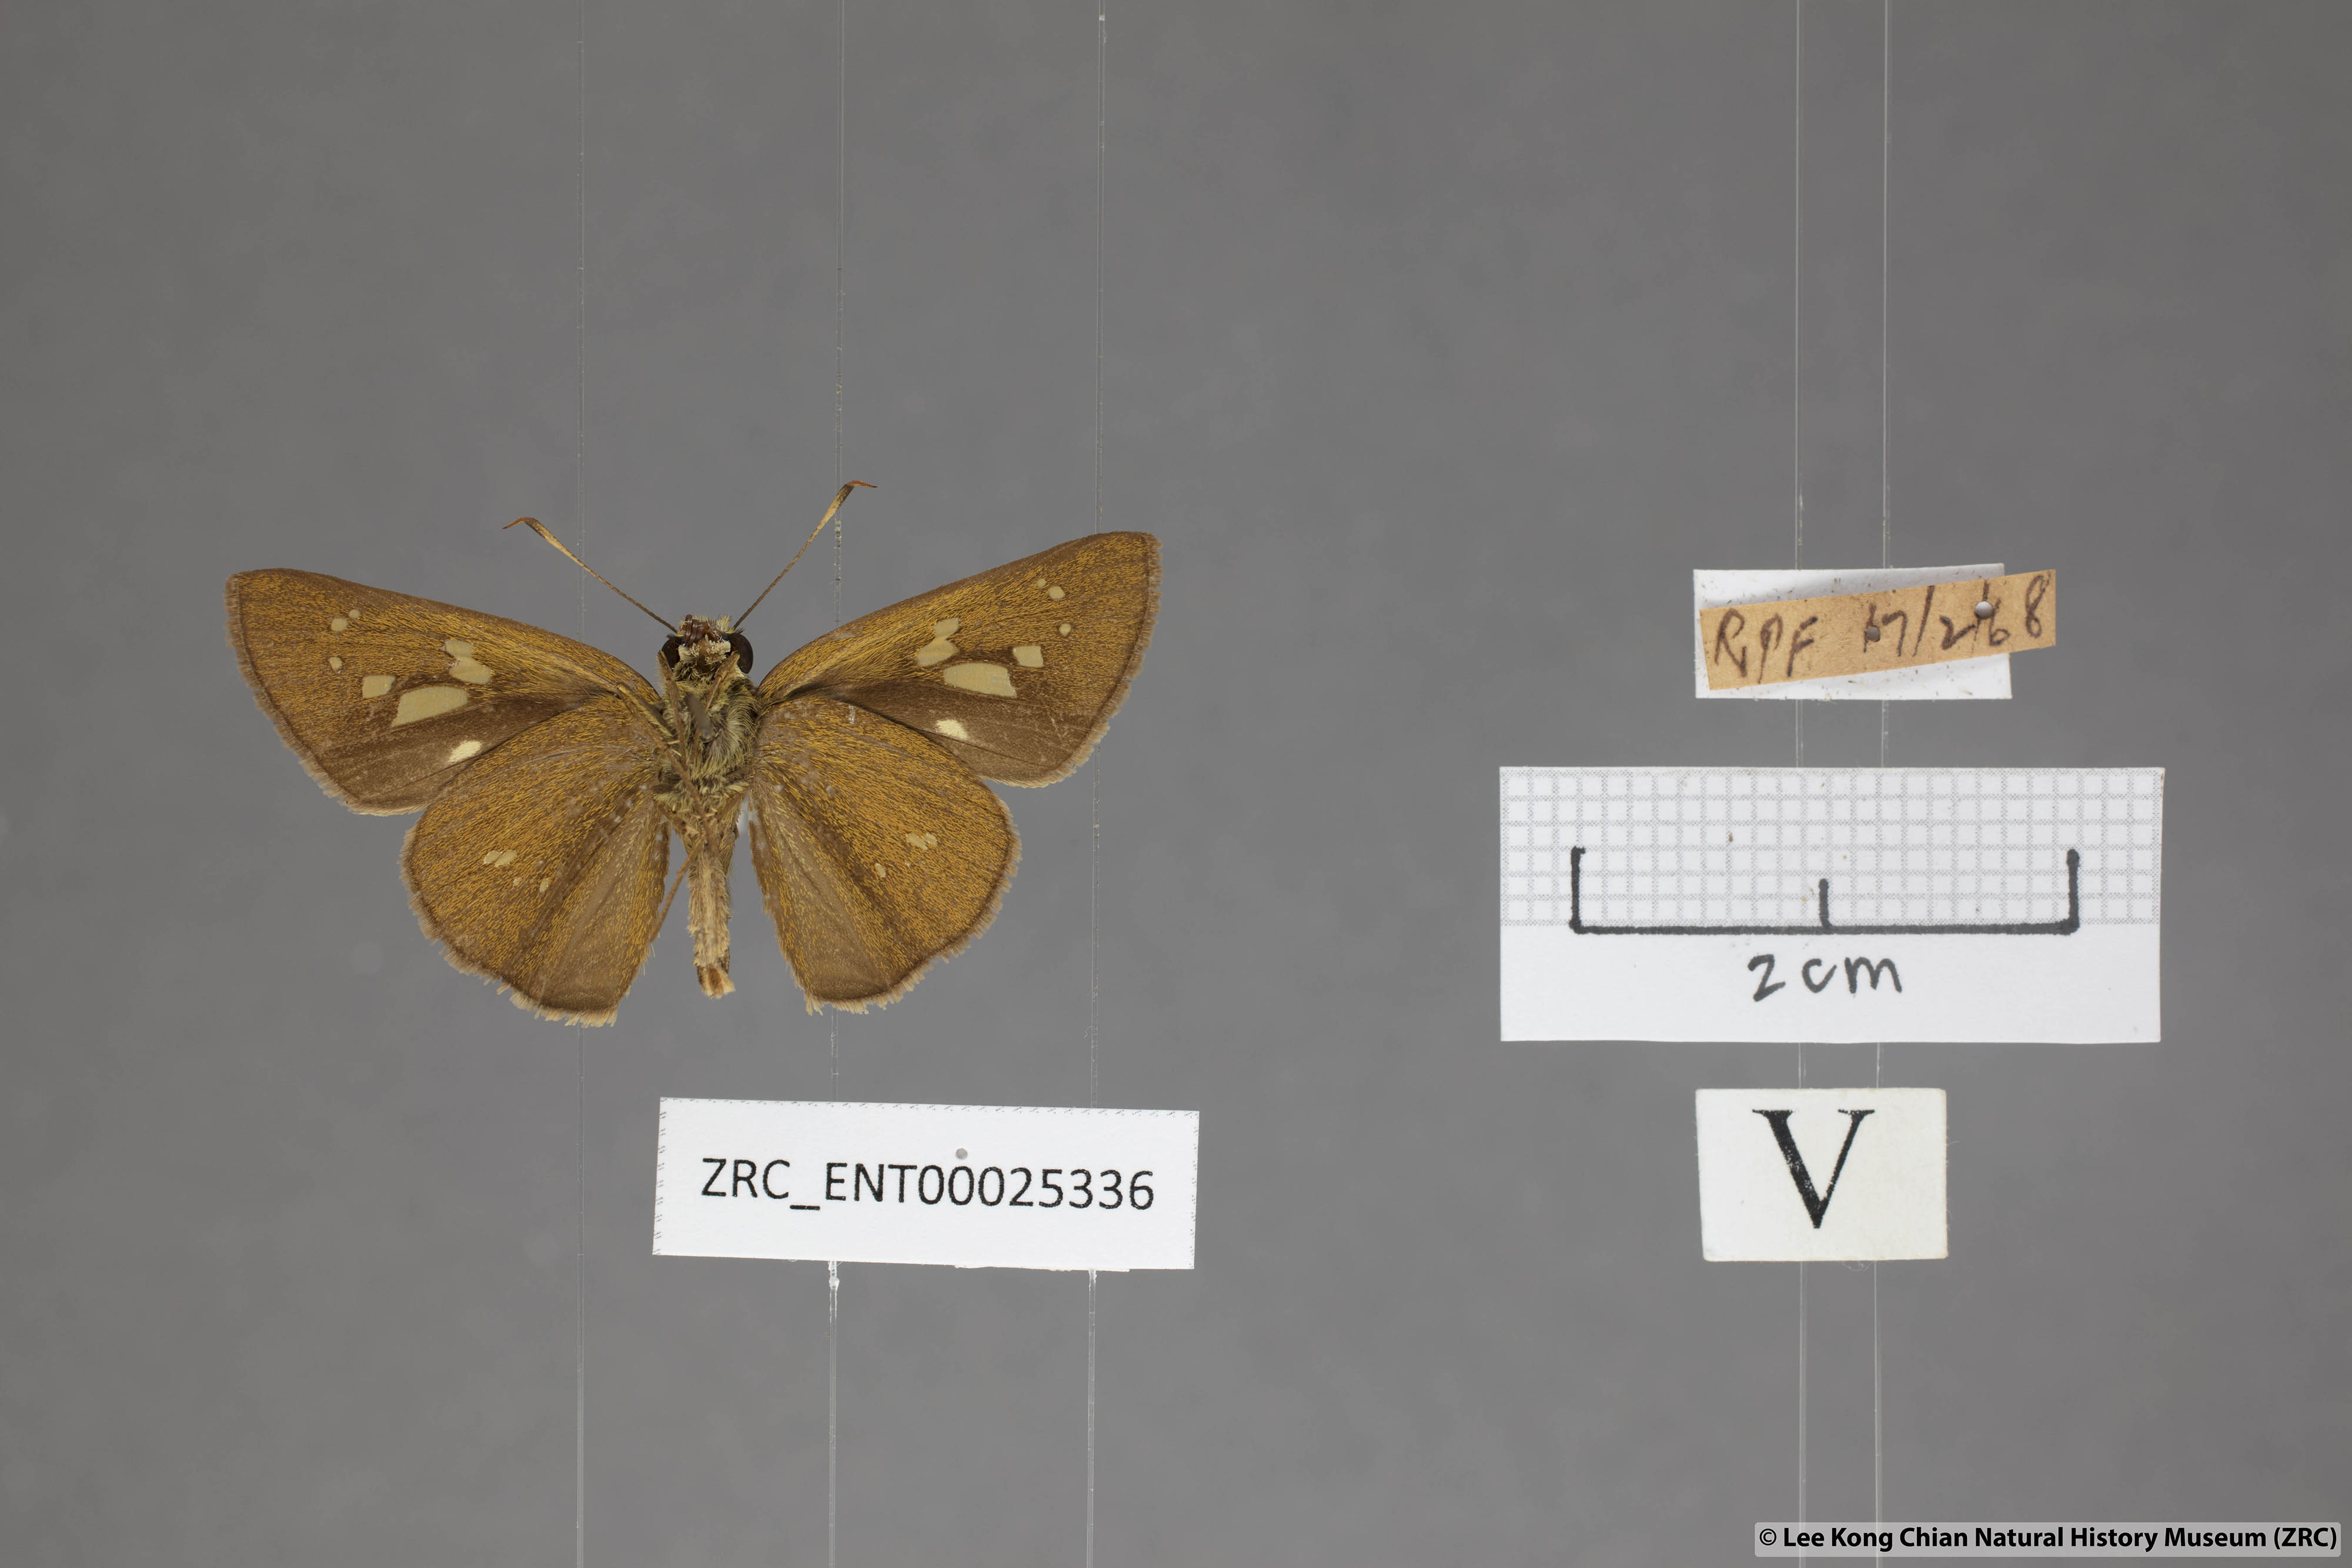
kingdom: Animalia
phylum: Arthropoda
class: Insecta
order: Lepidoptera
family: Hesperiidae
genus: Polytremis
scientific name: Polytremis lubricans
